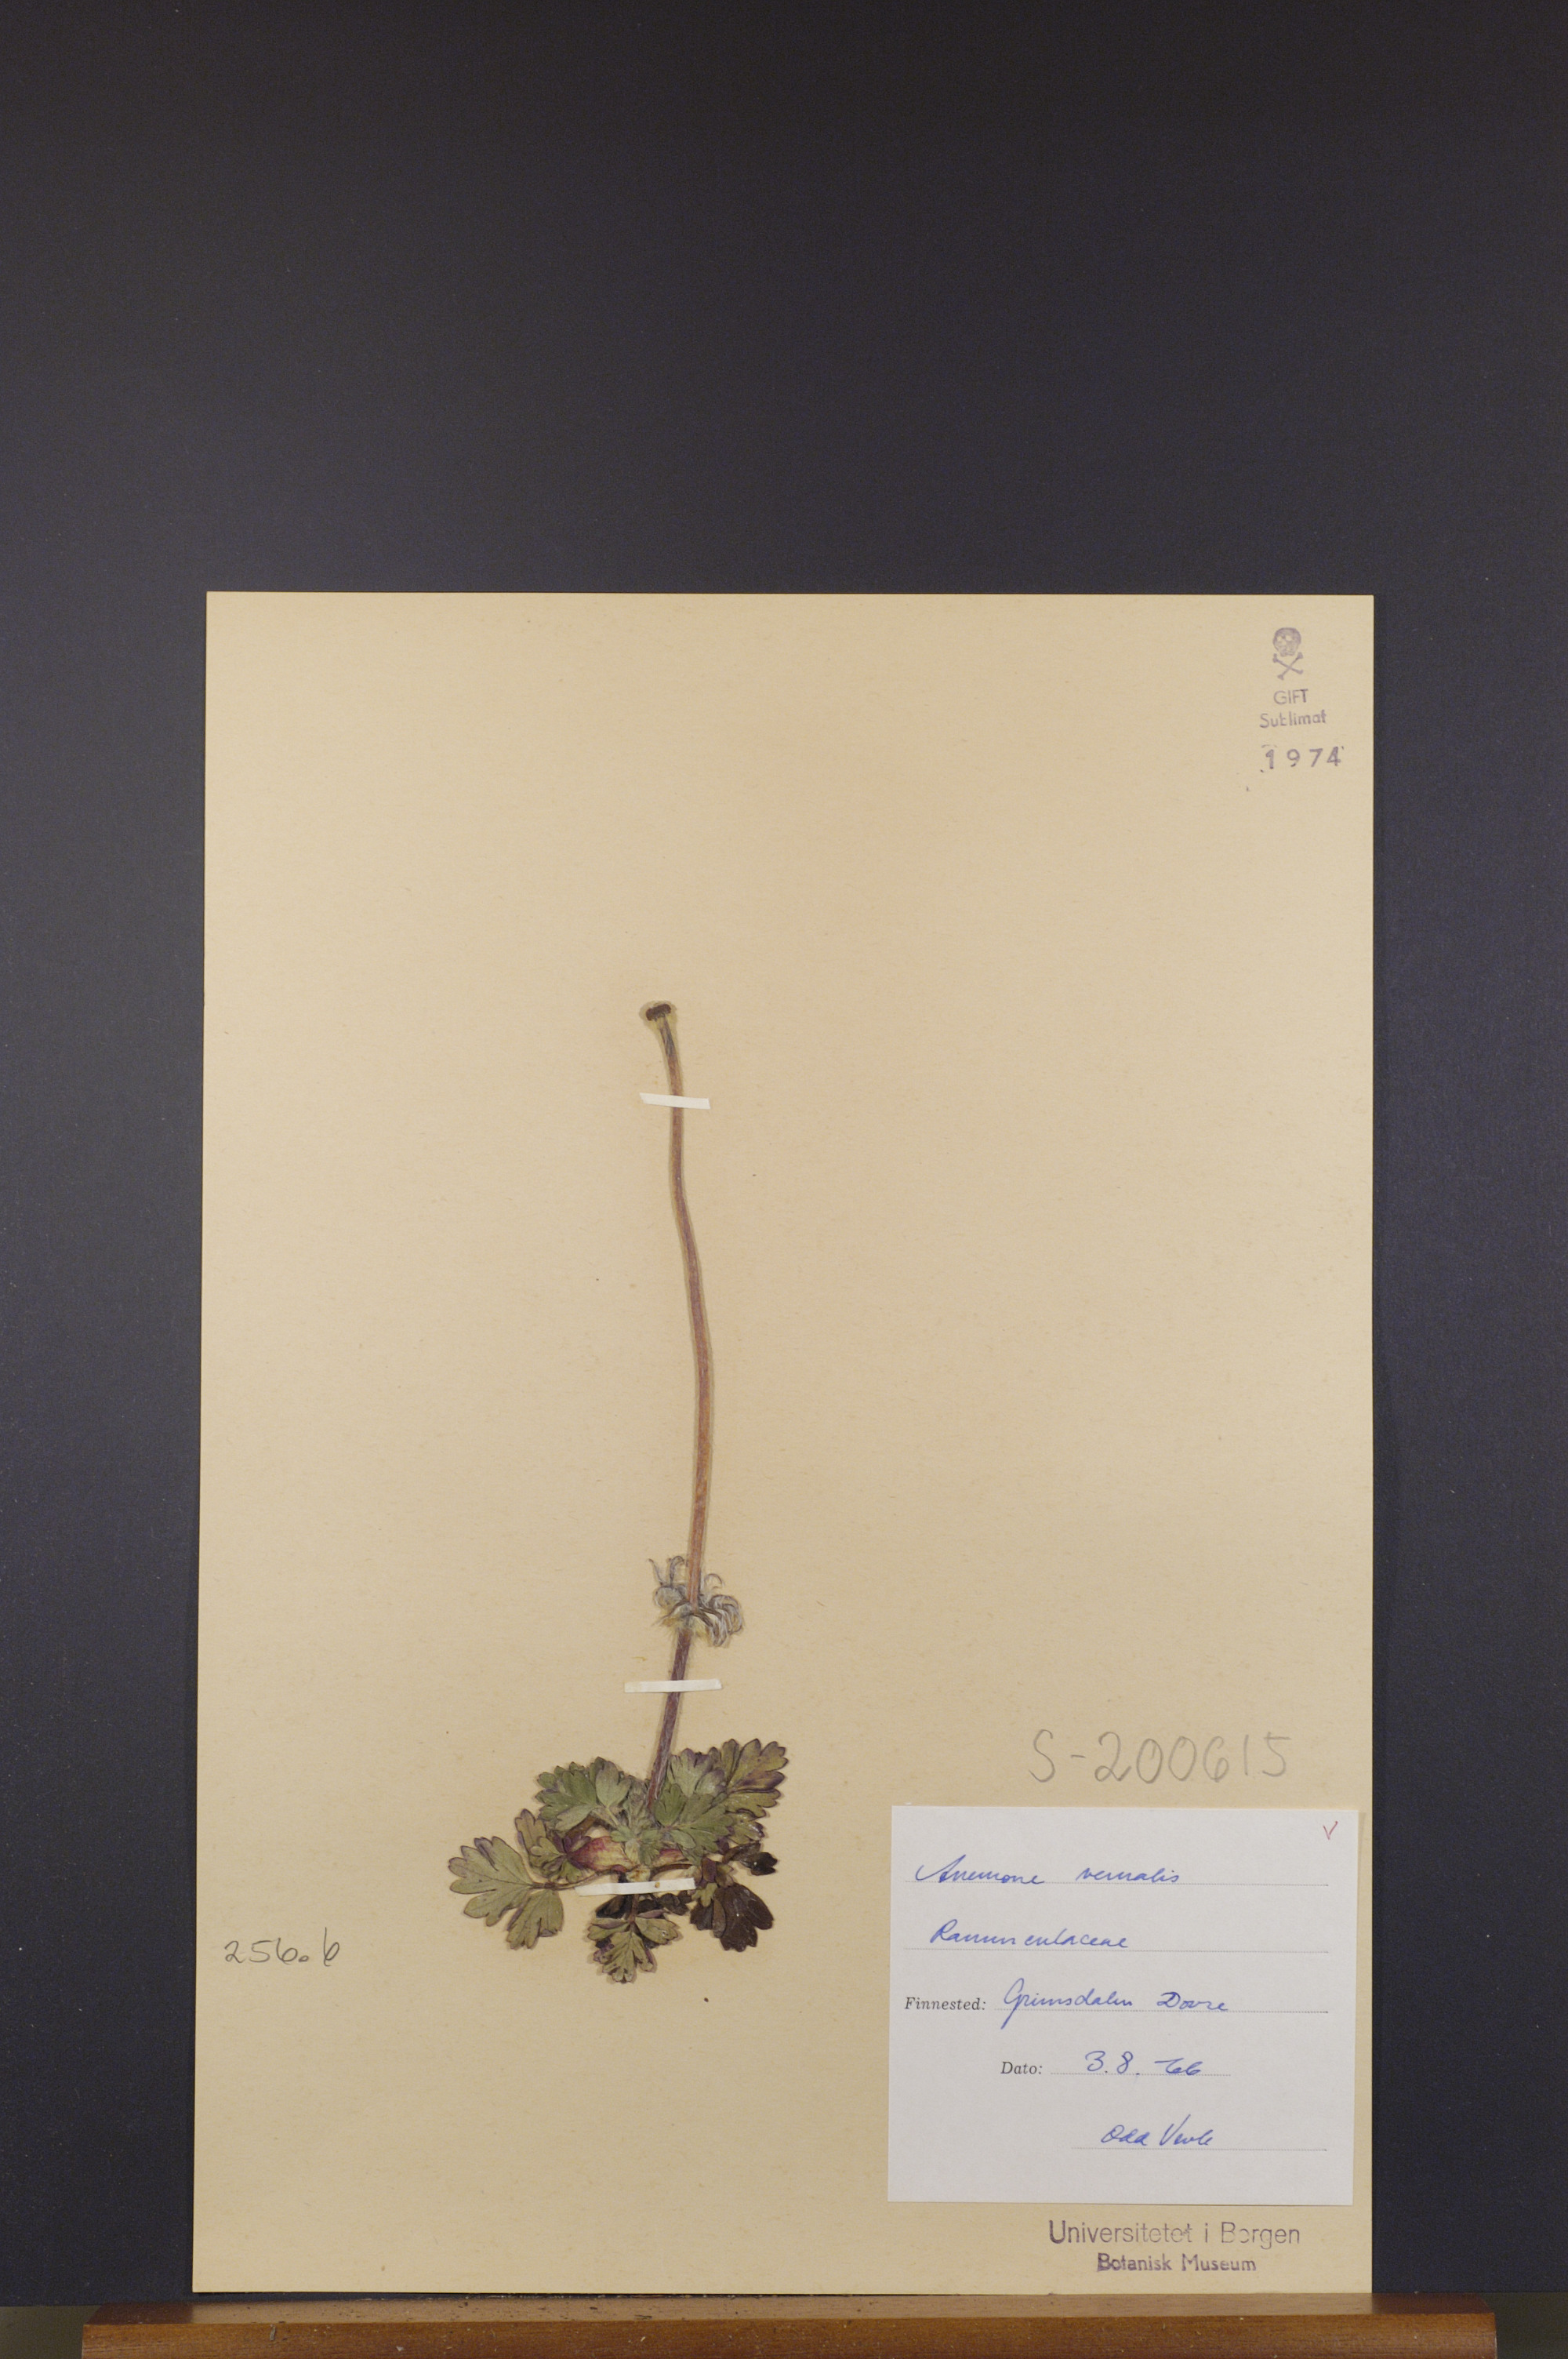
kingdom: Plantae
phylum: Tracheophyta
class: Magnoliopsida
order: Ranunculales
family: Ranunculaceae
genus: Pulsatilla
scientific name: Pulsatilla vernalis
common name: Spring pasque flower
